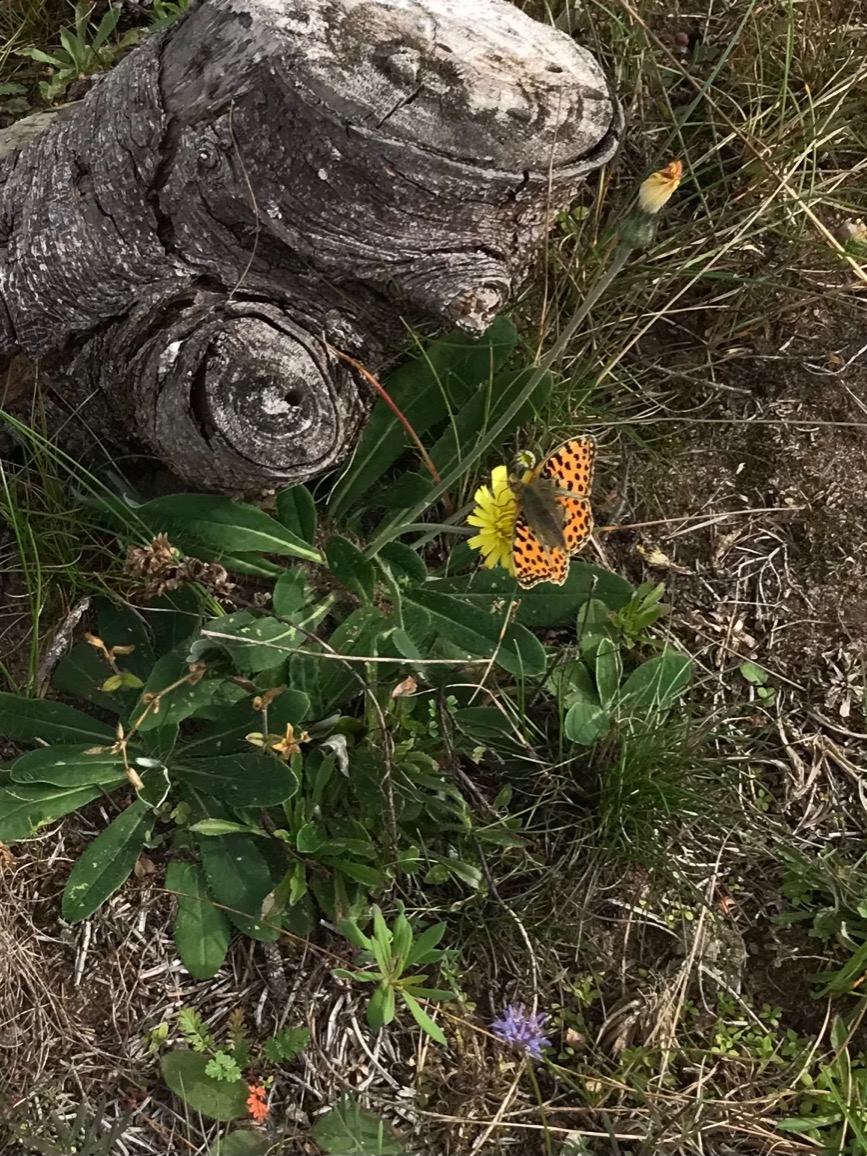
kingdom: Animalia
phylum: Arthropoda
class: Insecta
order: Lepidoptera
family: Nymphalidae
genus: Issoria
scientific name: Issoria lathonia
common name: Storplettet perlemorsommerfugl
